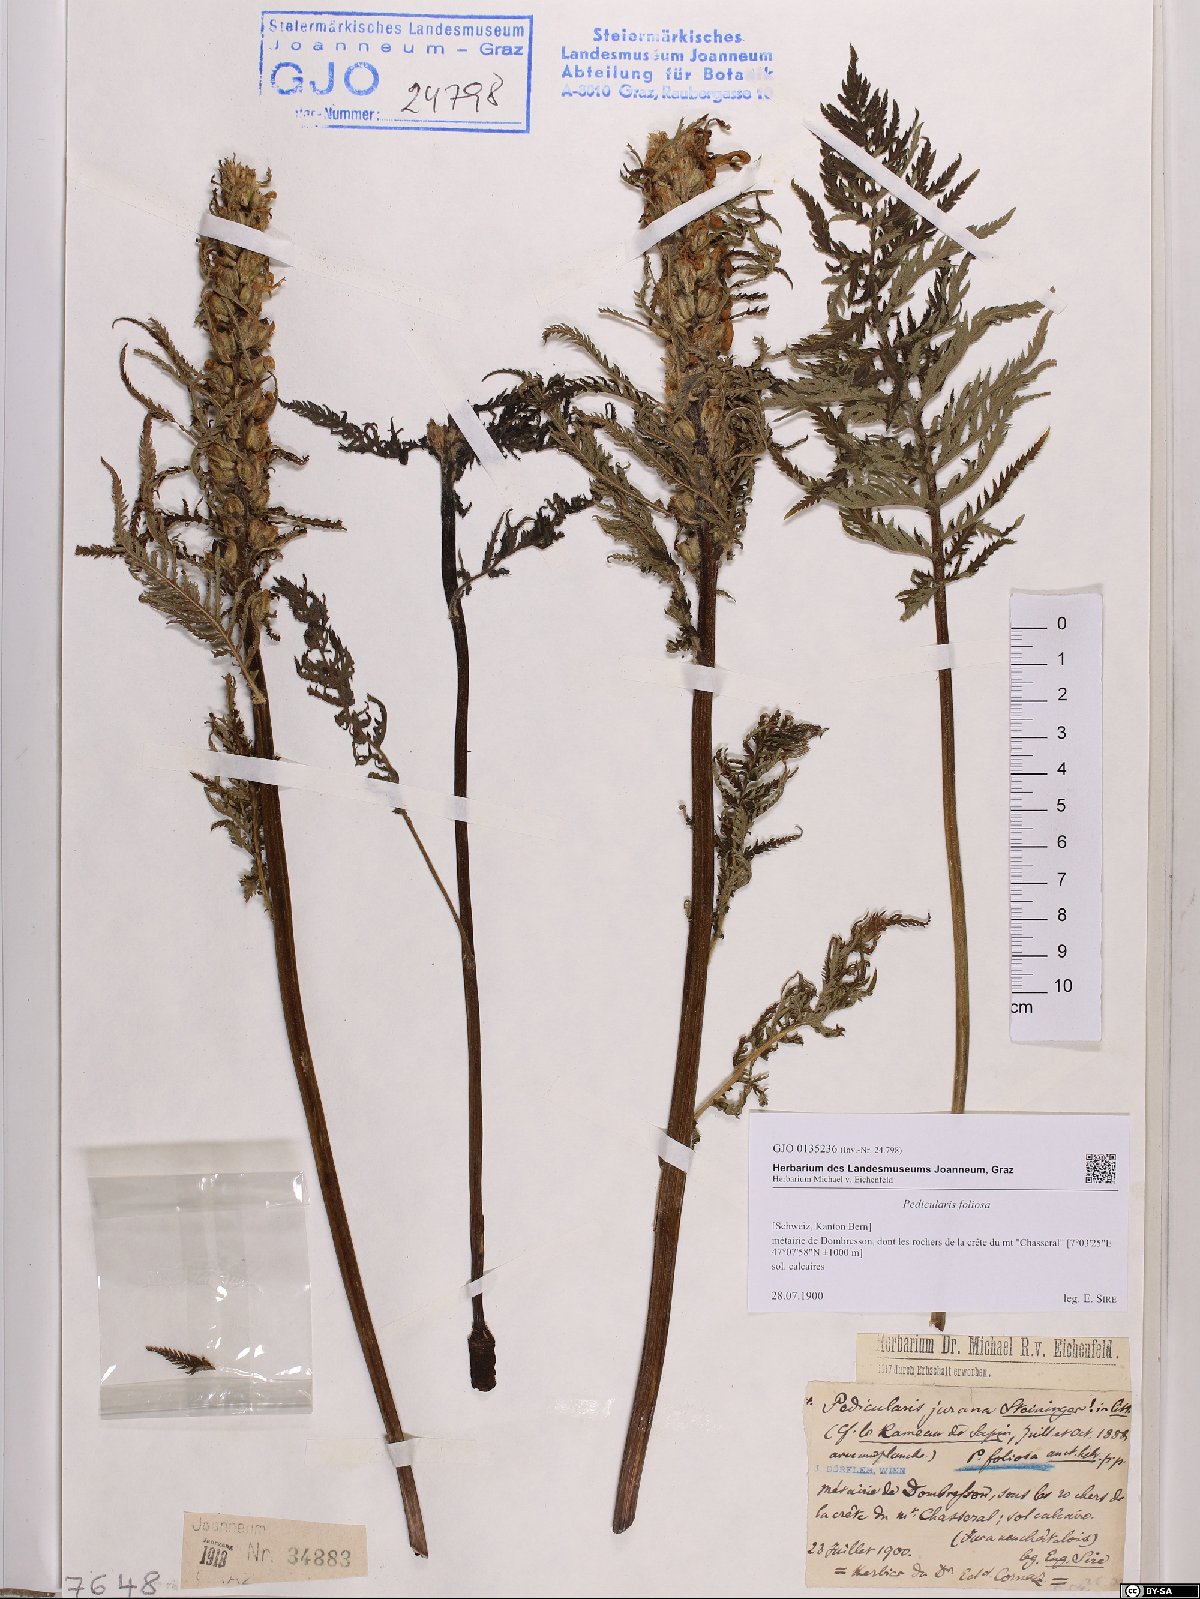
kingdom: Plantae
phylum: Tracheophyta
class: Magnoliopsida
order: Lamiales
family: Orobanchaceae
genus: Pedicularis
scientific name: Pedicularis foliosa
